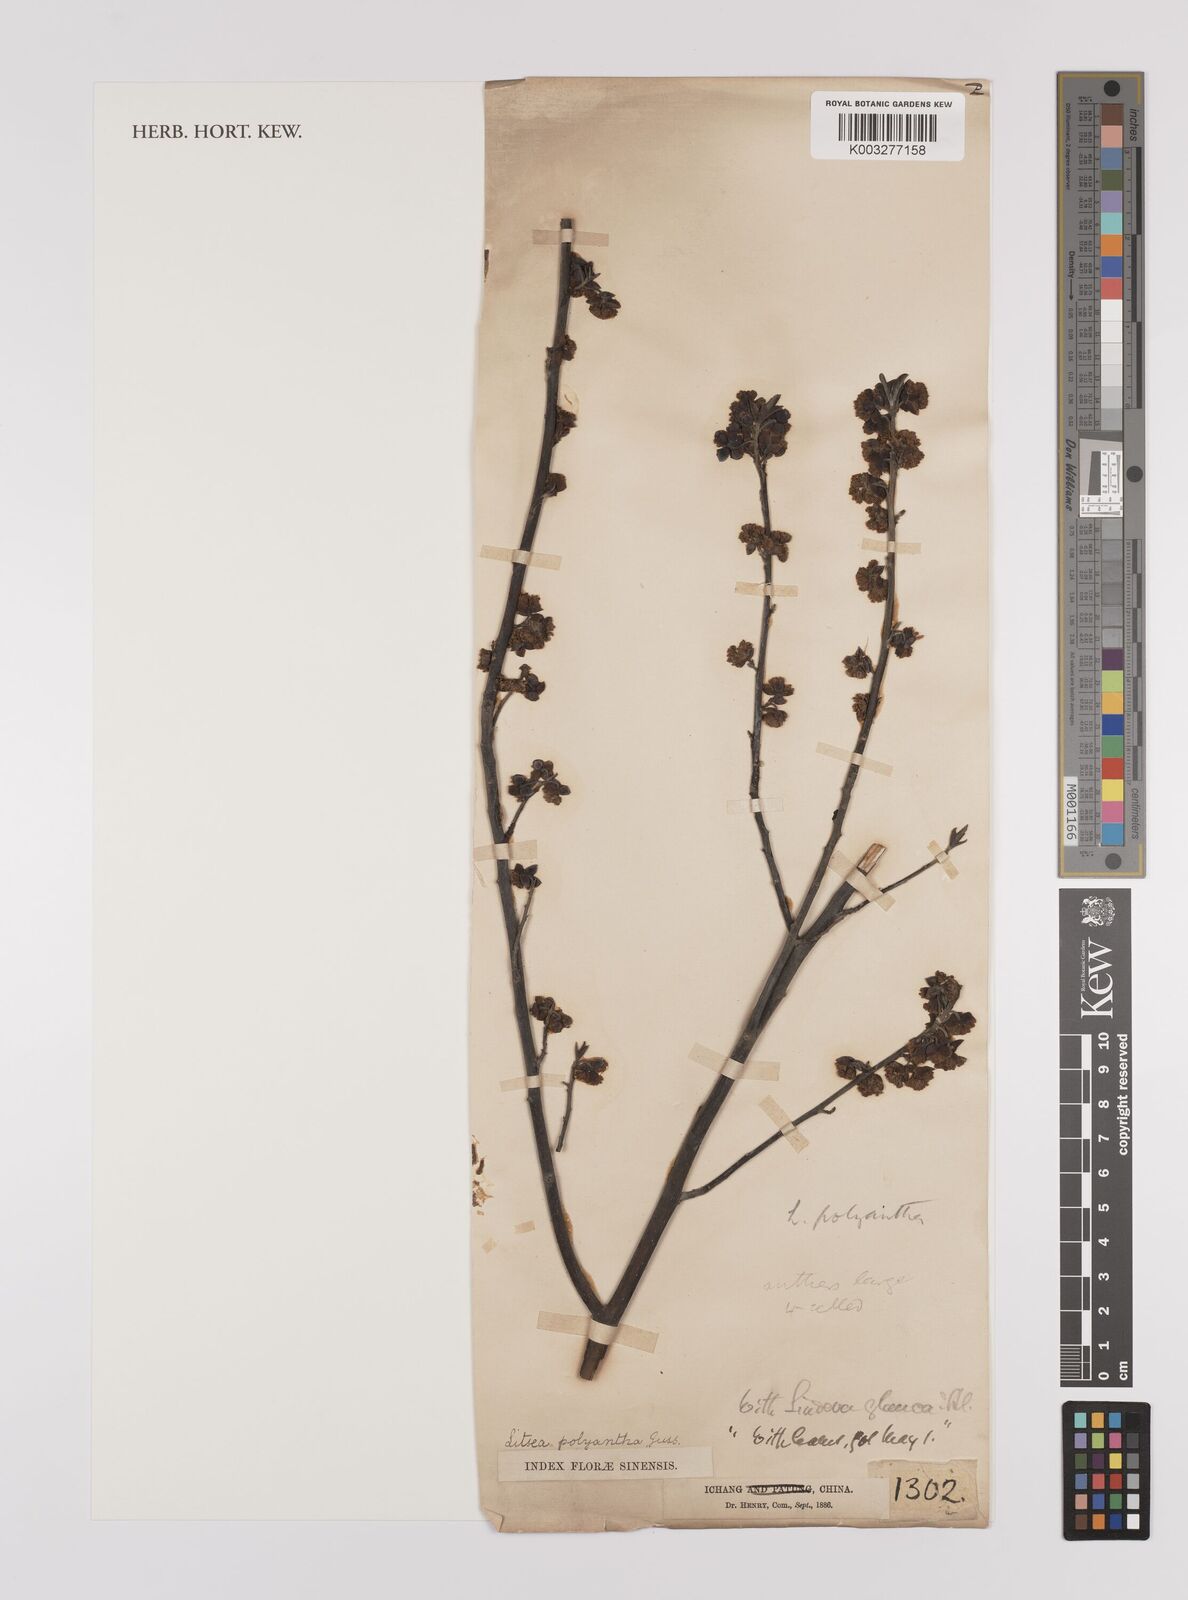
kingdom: Plantae
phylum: Tracheophyta
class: Magnoliopsida
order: Laurales
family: Lauraceae
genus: Litsea
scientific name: Litsea cubeba
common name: Mountain-pepper
